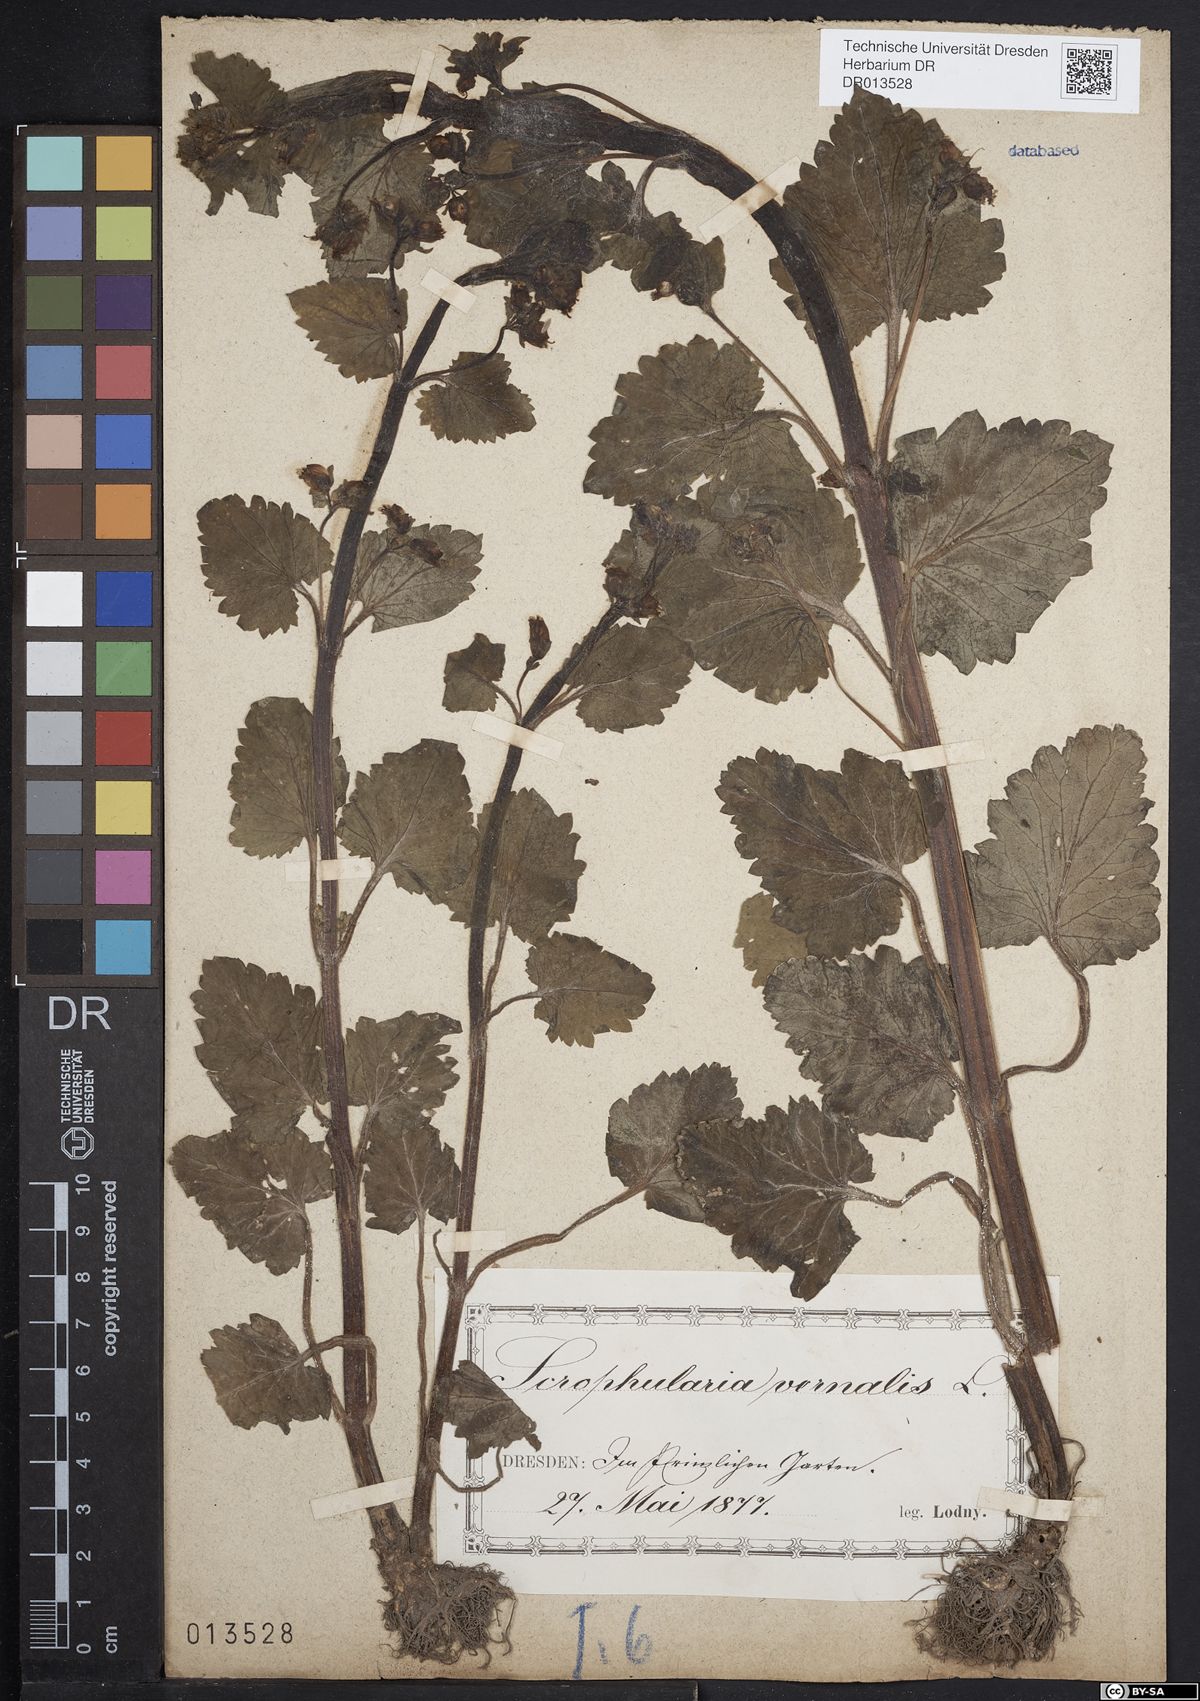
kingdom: Plantae
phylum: Tracheophyta
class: Magnoliopsida
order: Lamiales
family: Scrophulariaceae
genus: Scrophularia
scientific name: Scrophularia vernalis
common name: Yellow figwort
